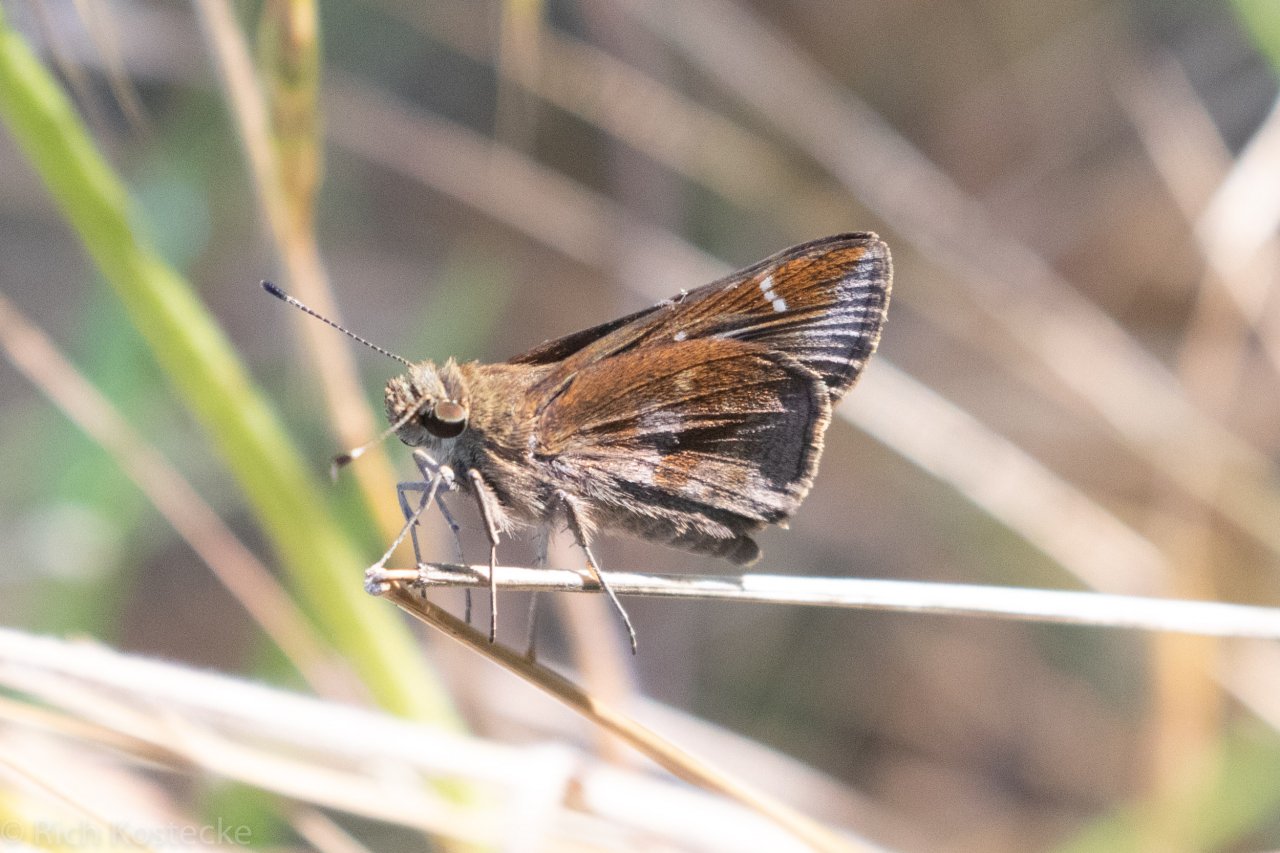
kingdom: Animalia
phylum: Arthropoda
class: Insecta
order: Lepidoptera
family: Hesperiidae
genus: Lerema
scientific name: Lerema accius
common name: Clouded Skipper
